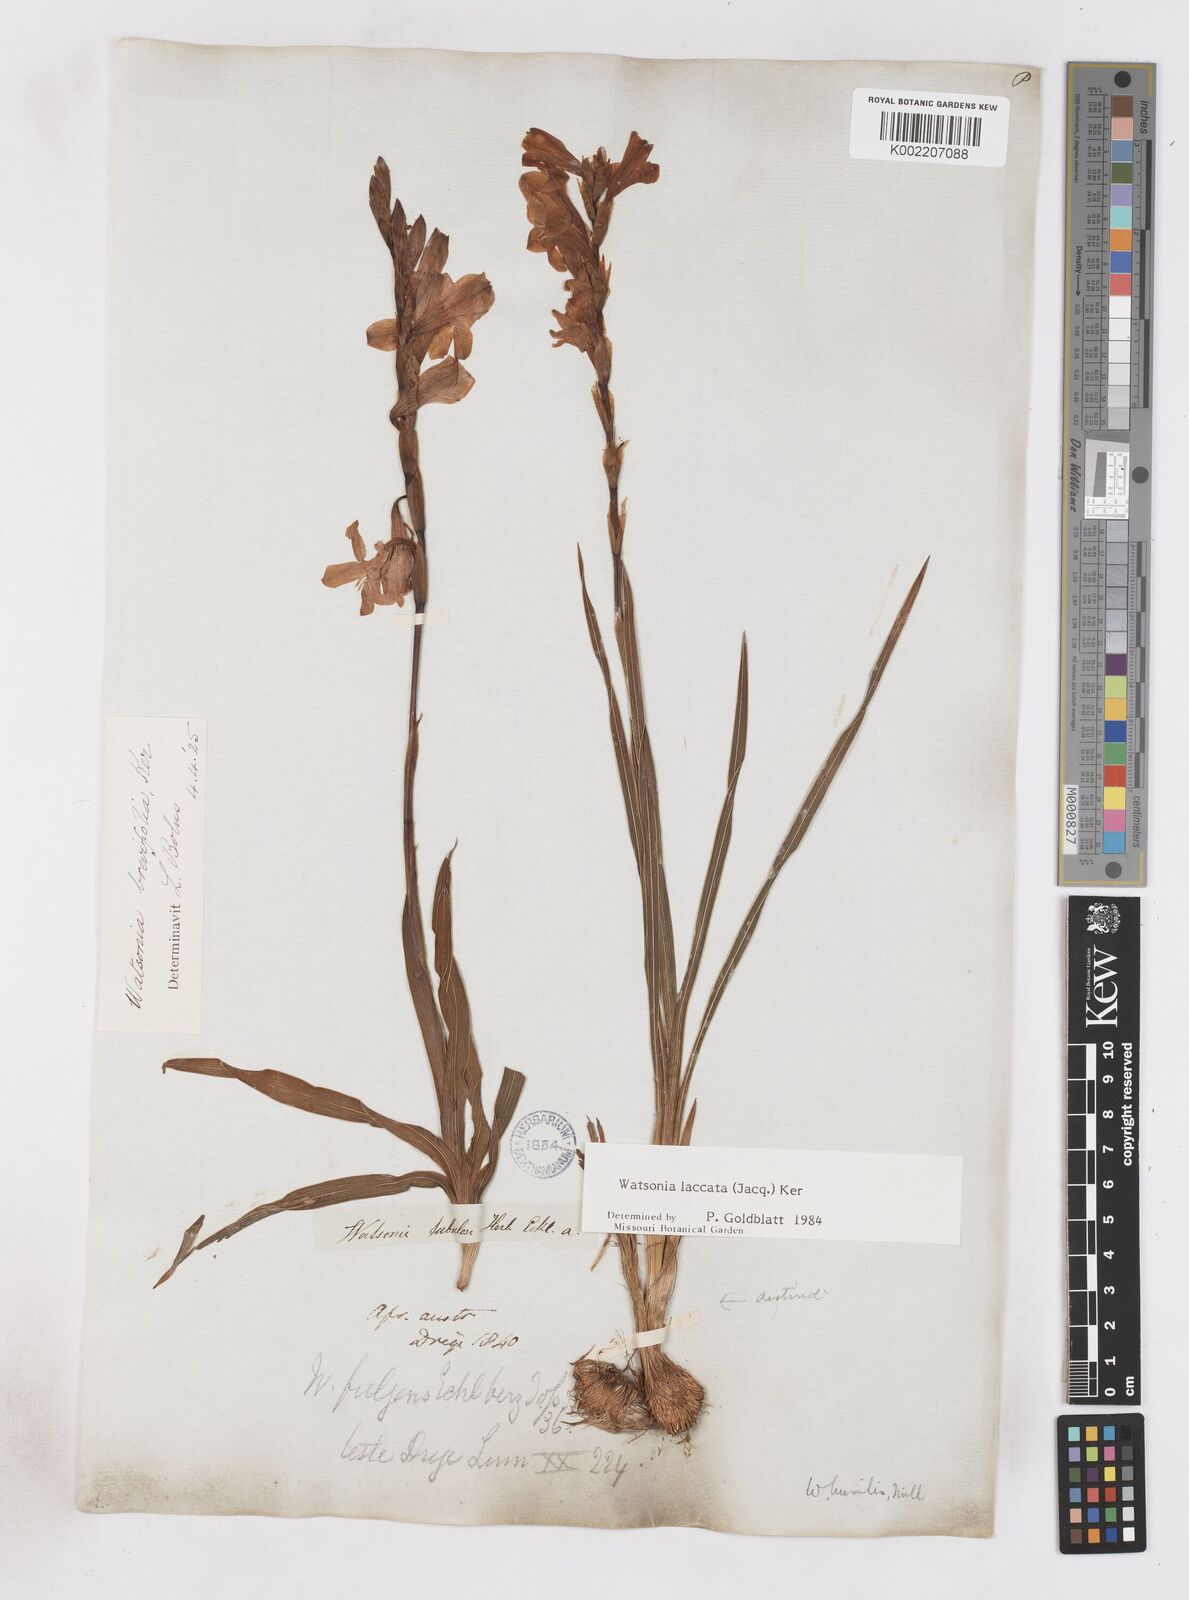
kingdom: Plantae
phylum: Tracheophyta
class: Liliopsida
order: Asparagales
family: Iridaceae
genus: Watsonia
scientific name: Watsonia laccata
